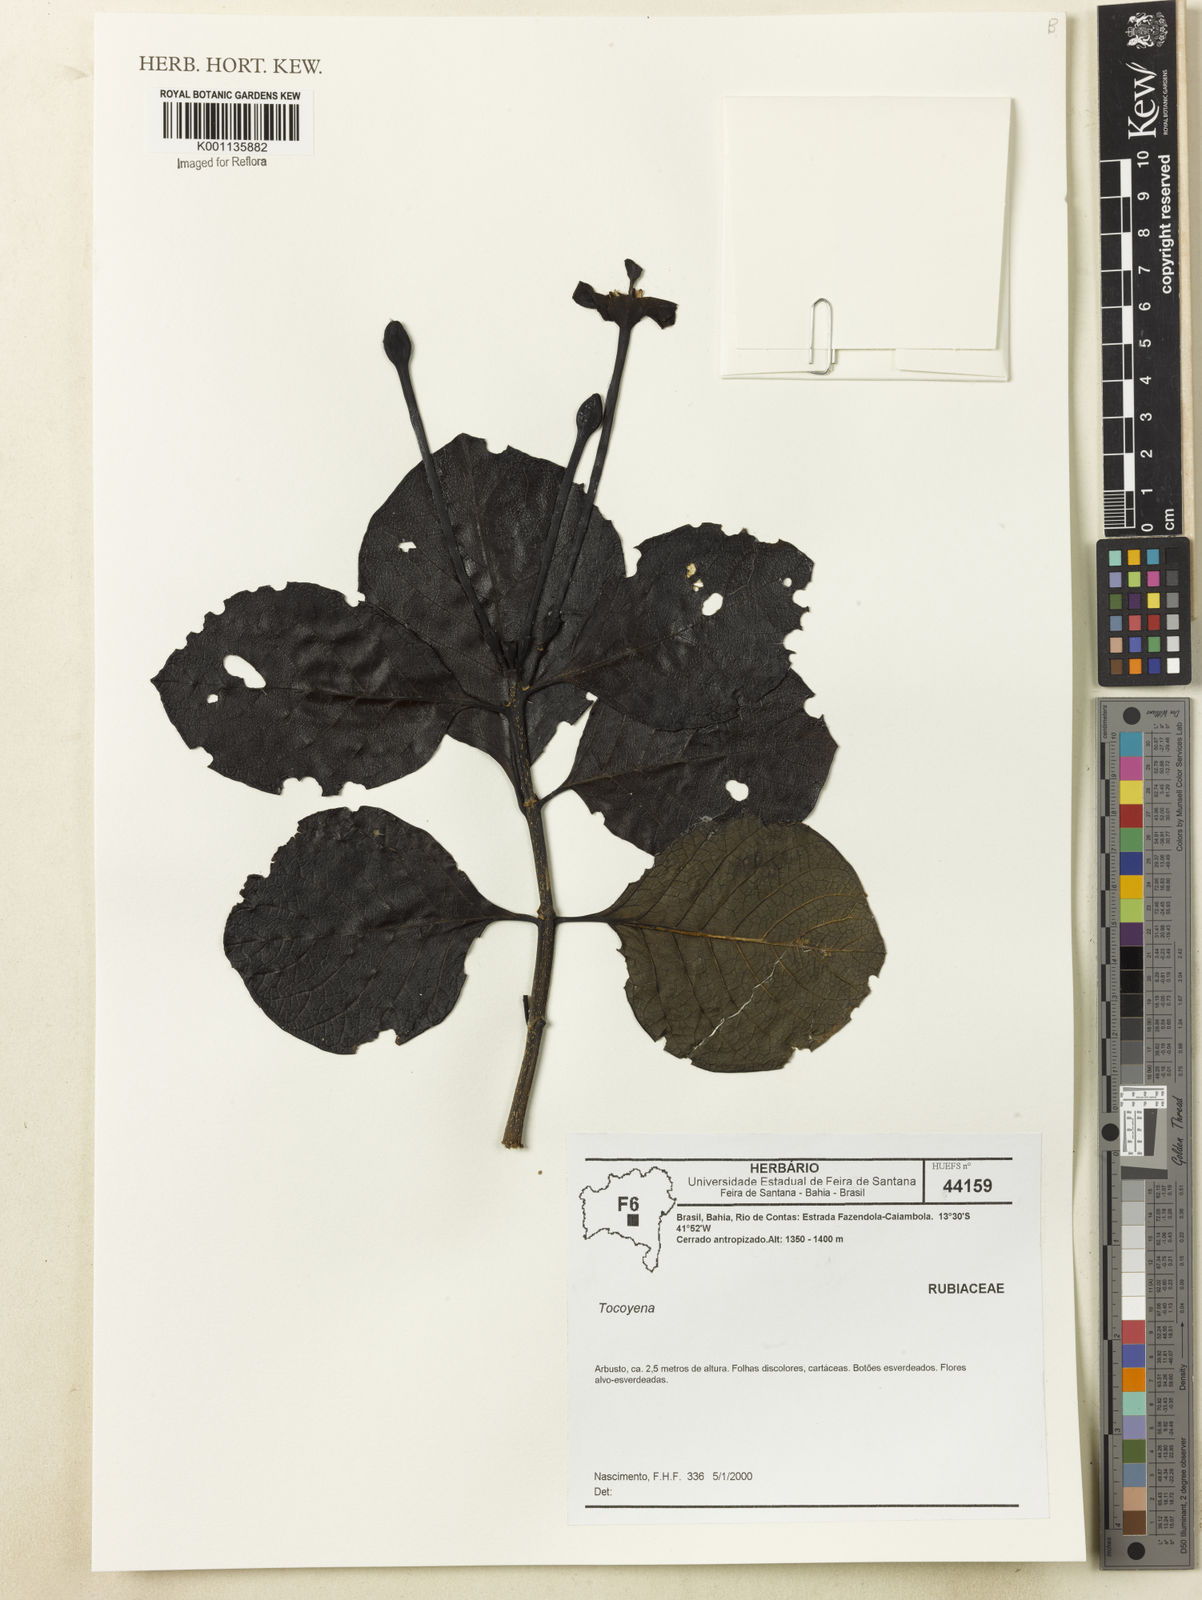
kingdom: Plantae
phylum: Tracheophyta
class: Magnoliopsida
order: Gentianales
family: Rubiaceae
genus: Tocoyena
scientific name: Tocoyena sprucei
